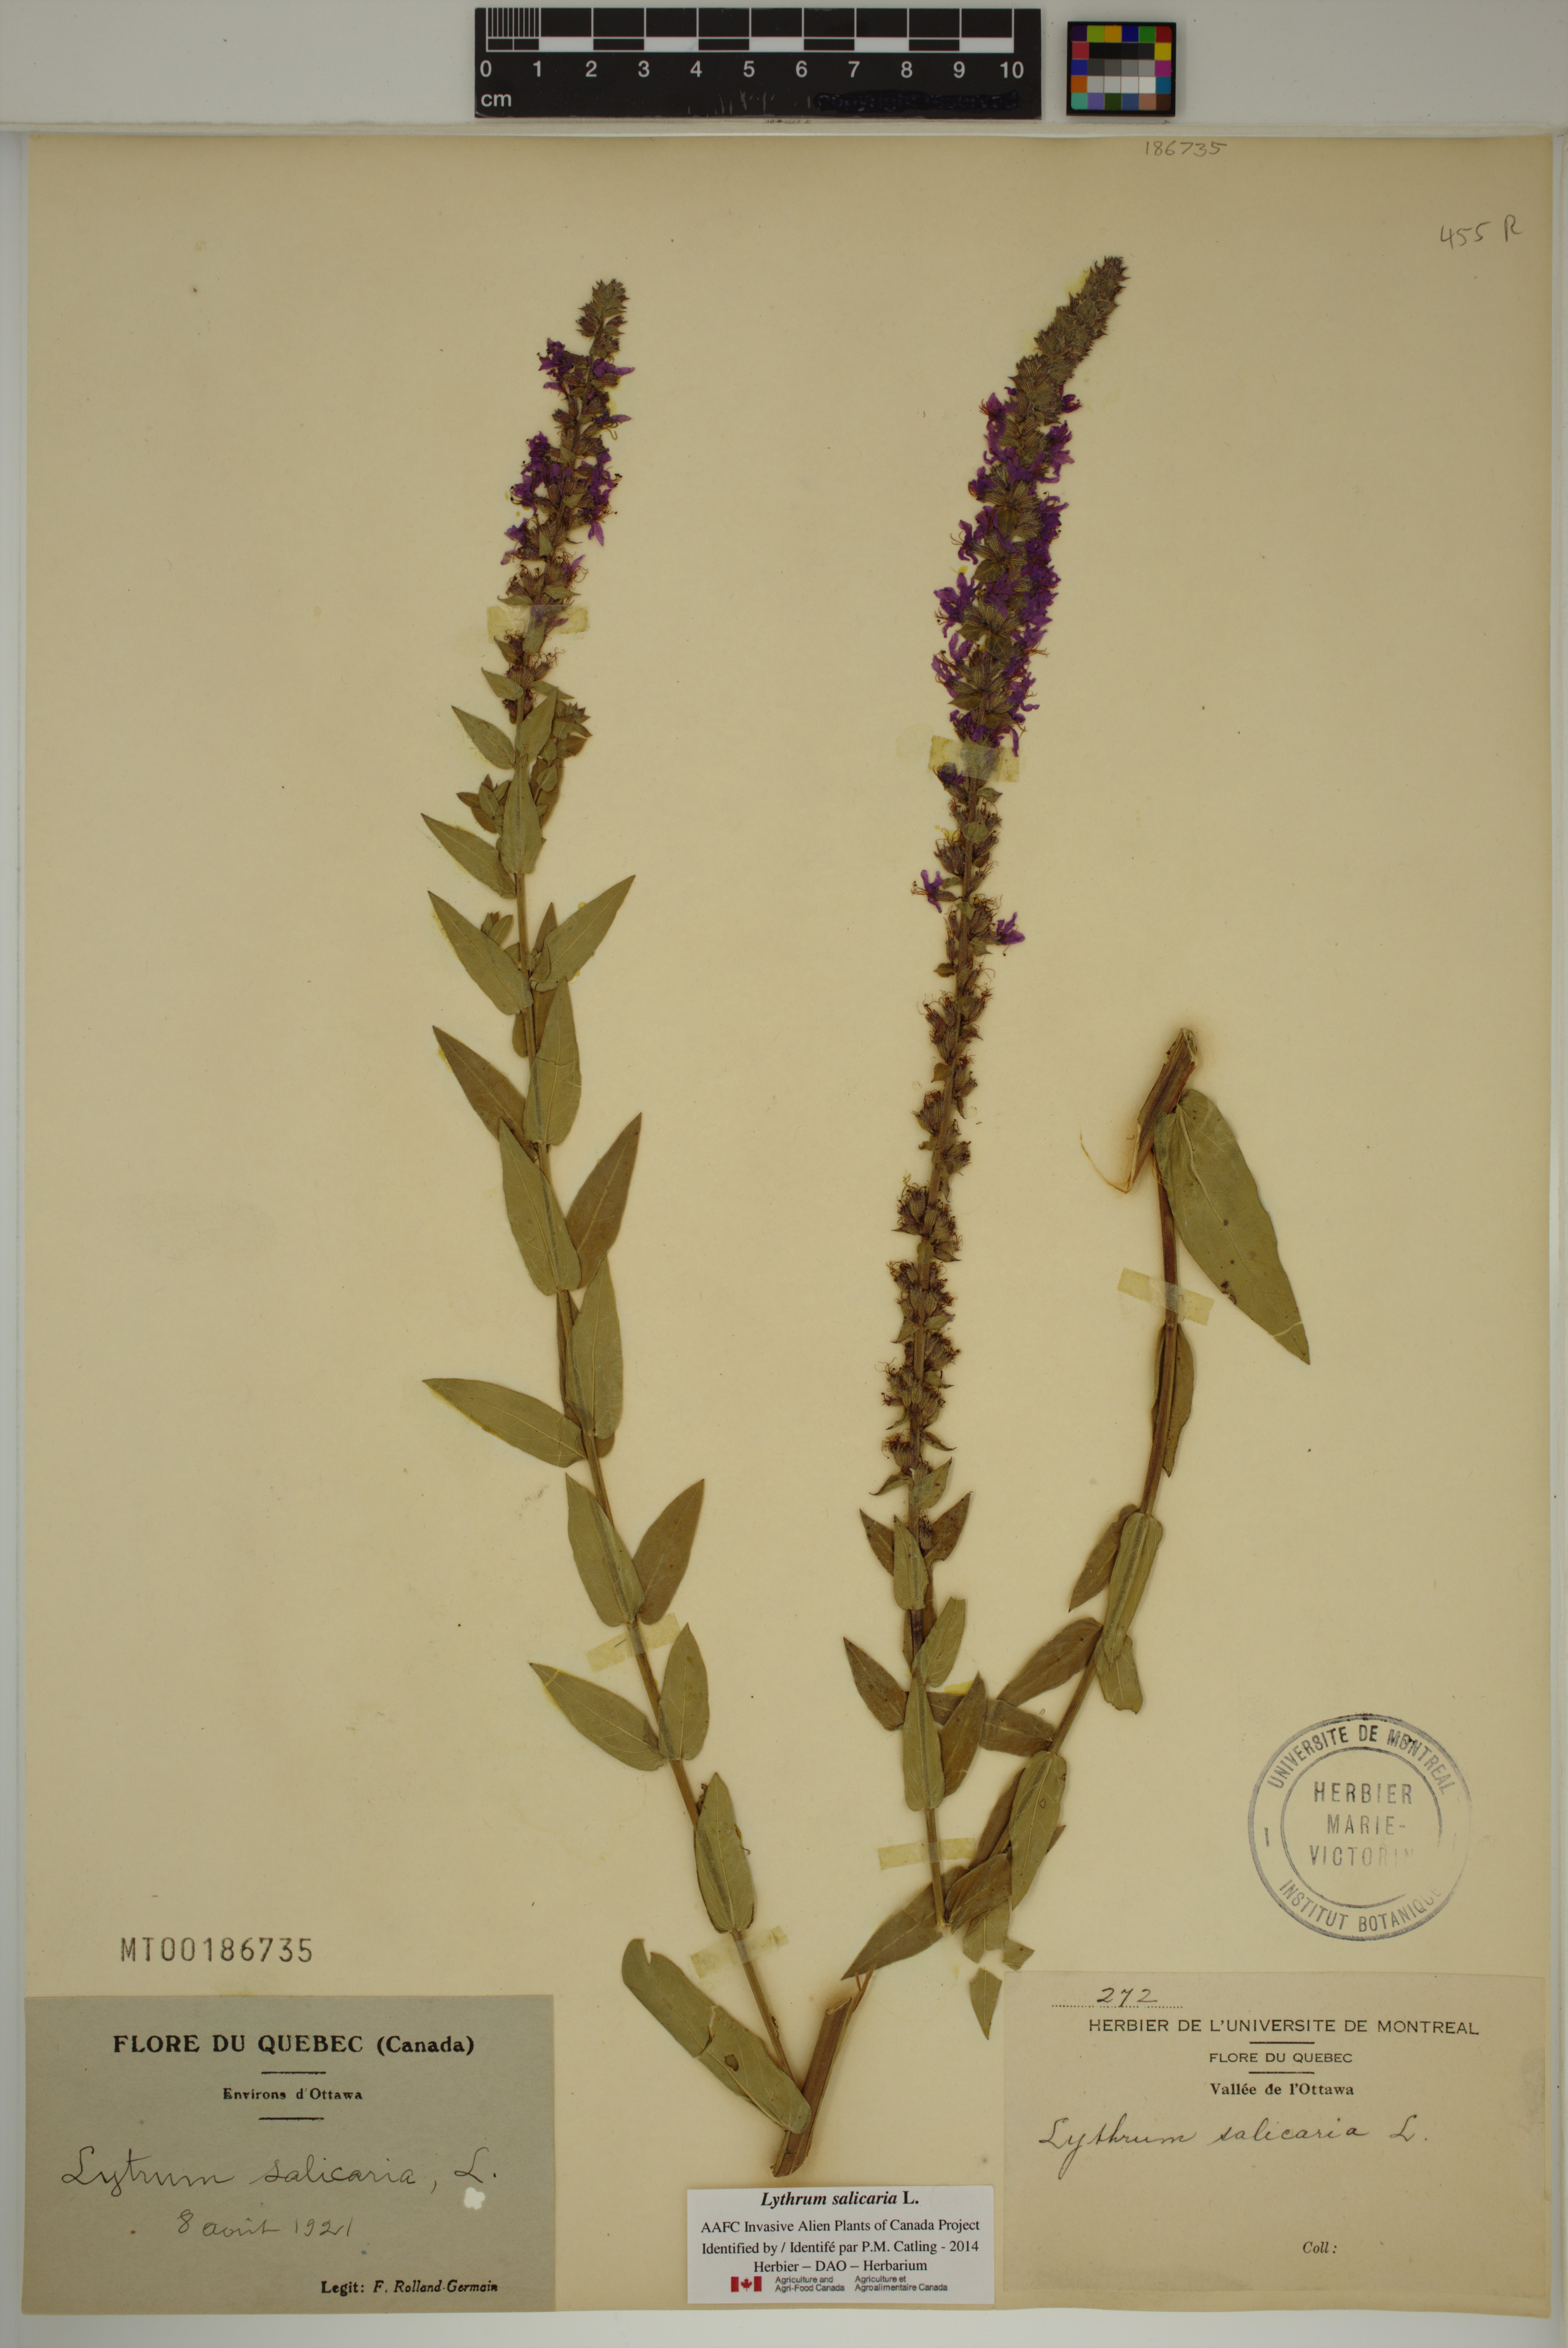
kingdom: Plantae
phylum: Tracheophyta
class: Magnoliopsida
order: Myrtales
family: Lythraceae
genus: Lythrum
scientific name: Lythrum salicaria
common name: Purple loosestrife
